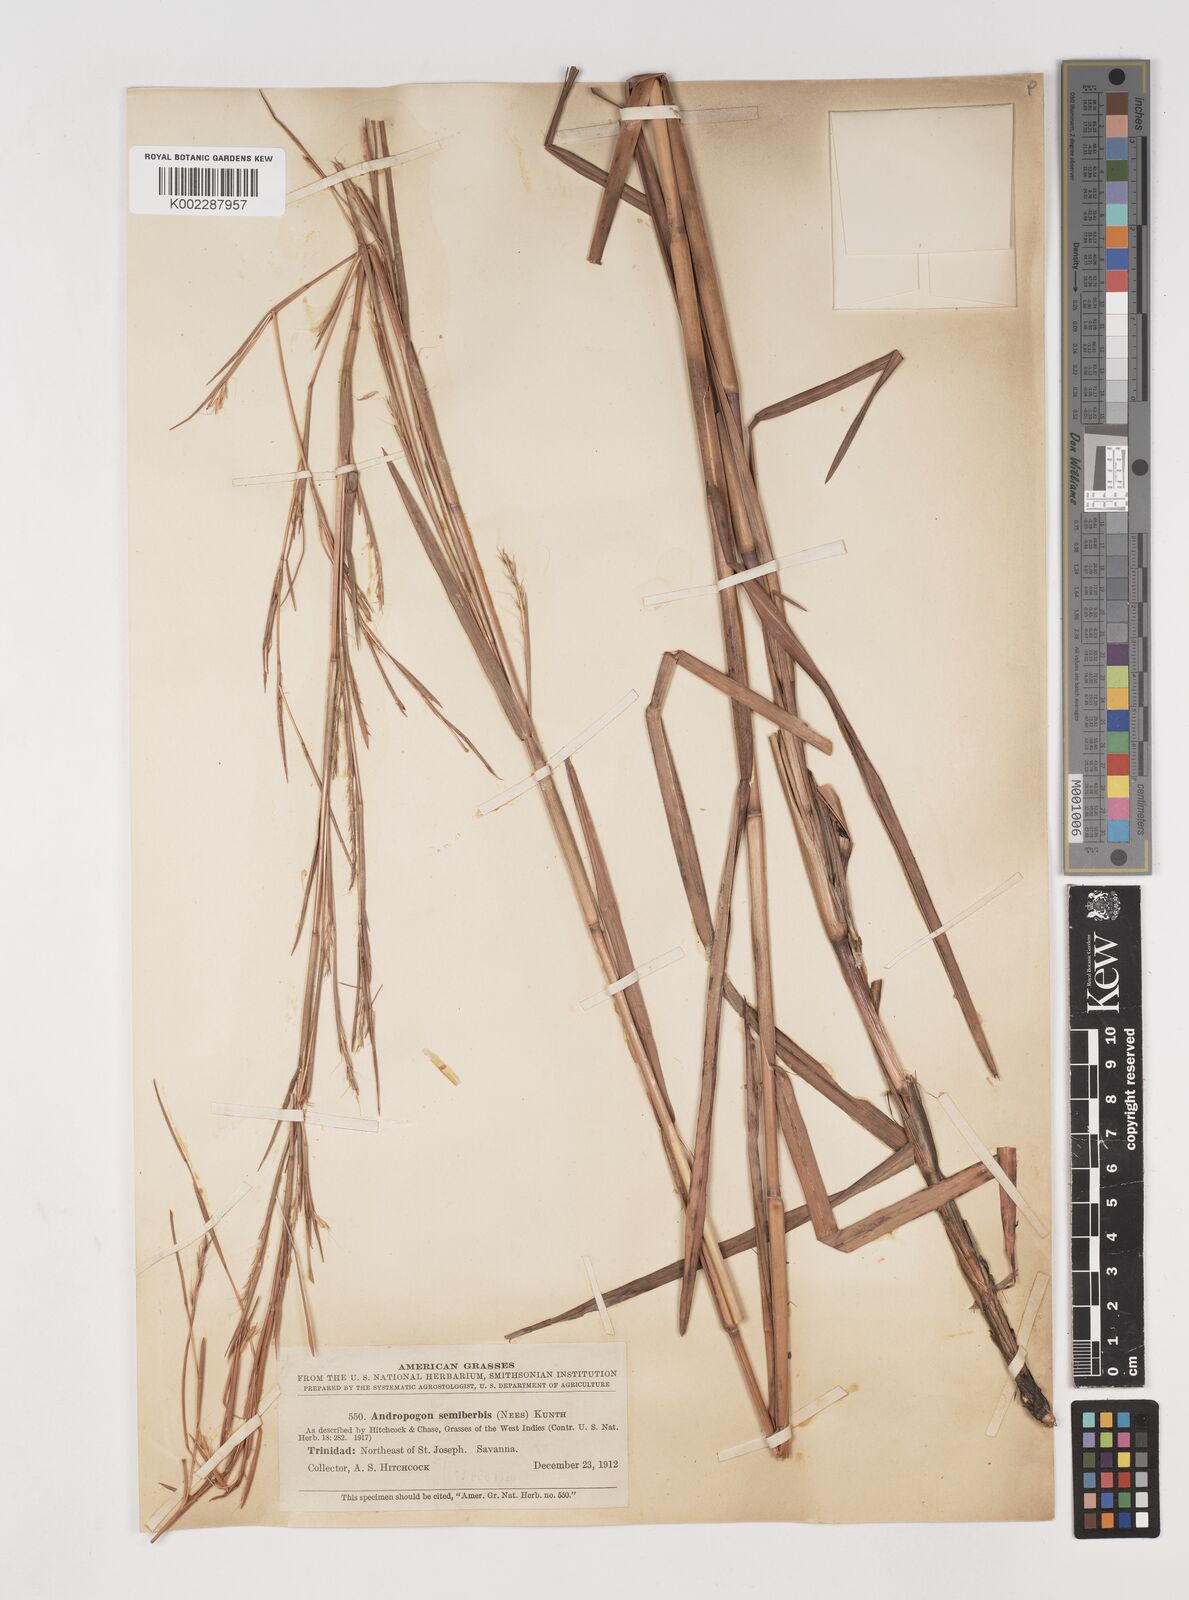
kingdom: Plantae
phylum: Tracheophyta
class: Liliopsida
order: Poales
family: Poaceae
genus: Schizachyrium
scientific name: Schizachyrium sanguineum
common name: Crimson bluestem
